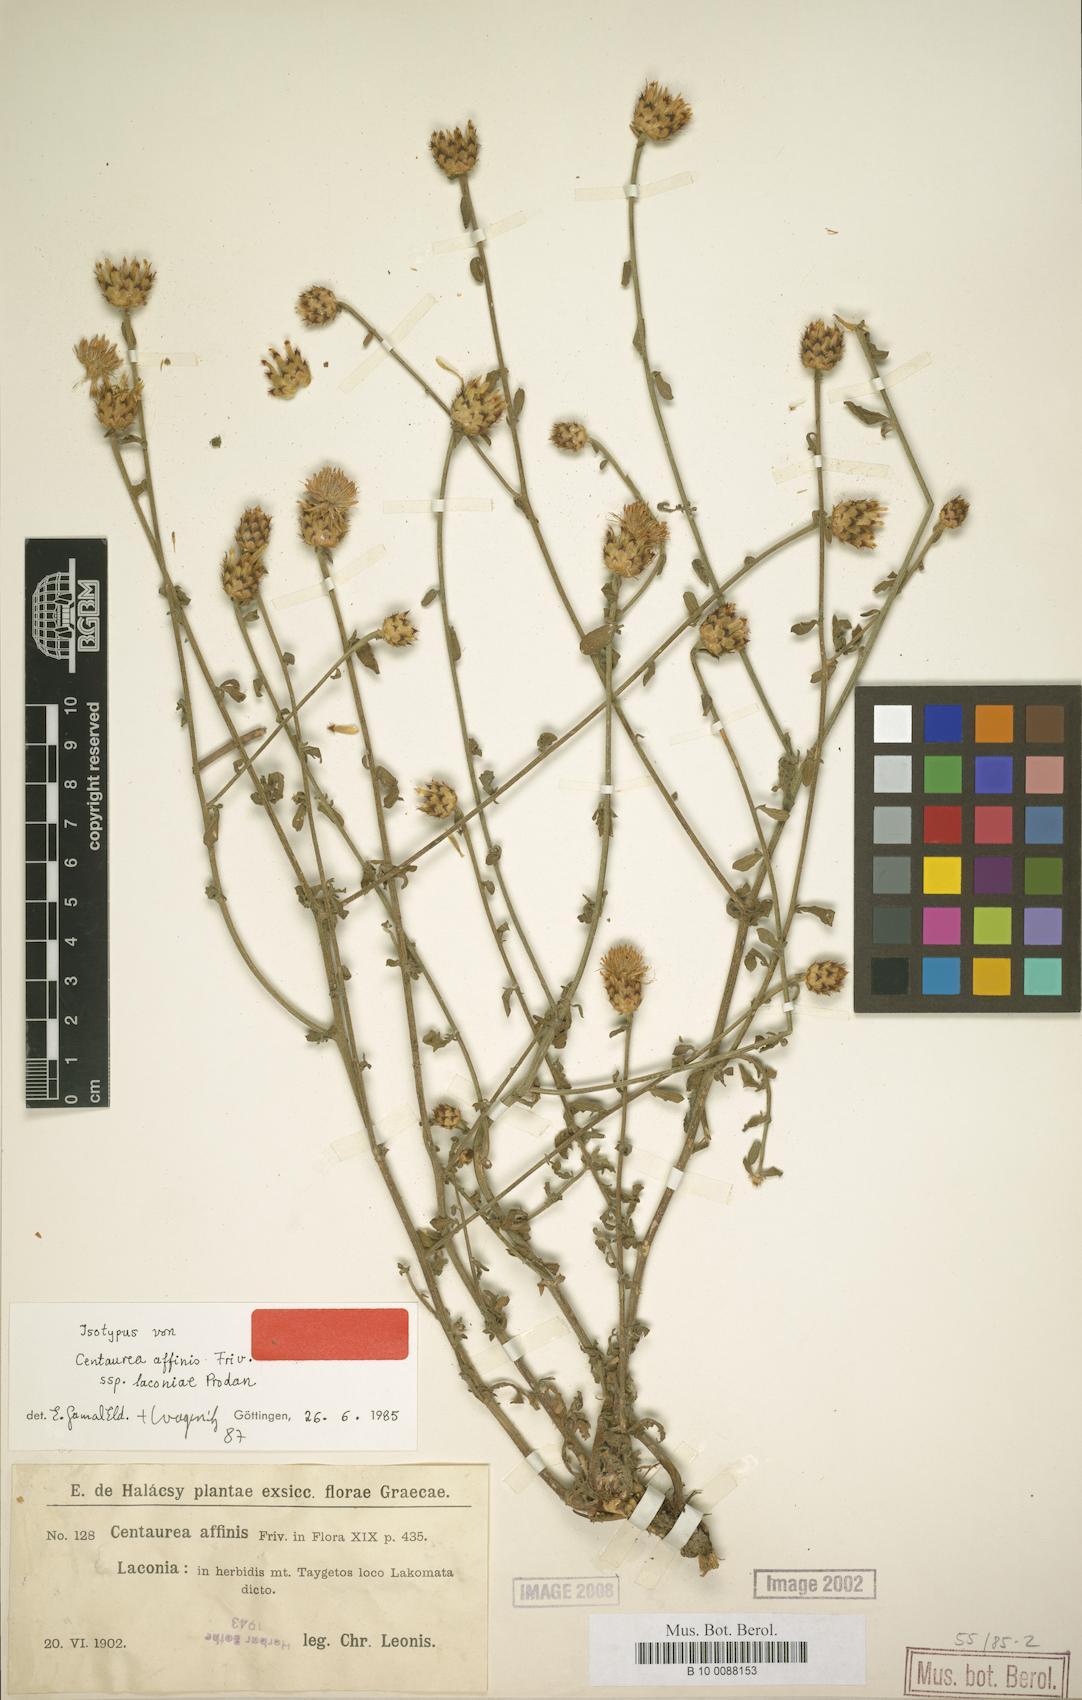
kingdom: Plantae
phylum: Tracheophyta
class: Magnoliopsida
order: Asterales
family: Asteraceae
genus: Centaurea
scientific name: Centaurea affinis
